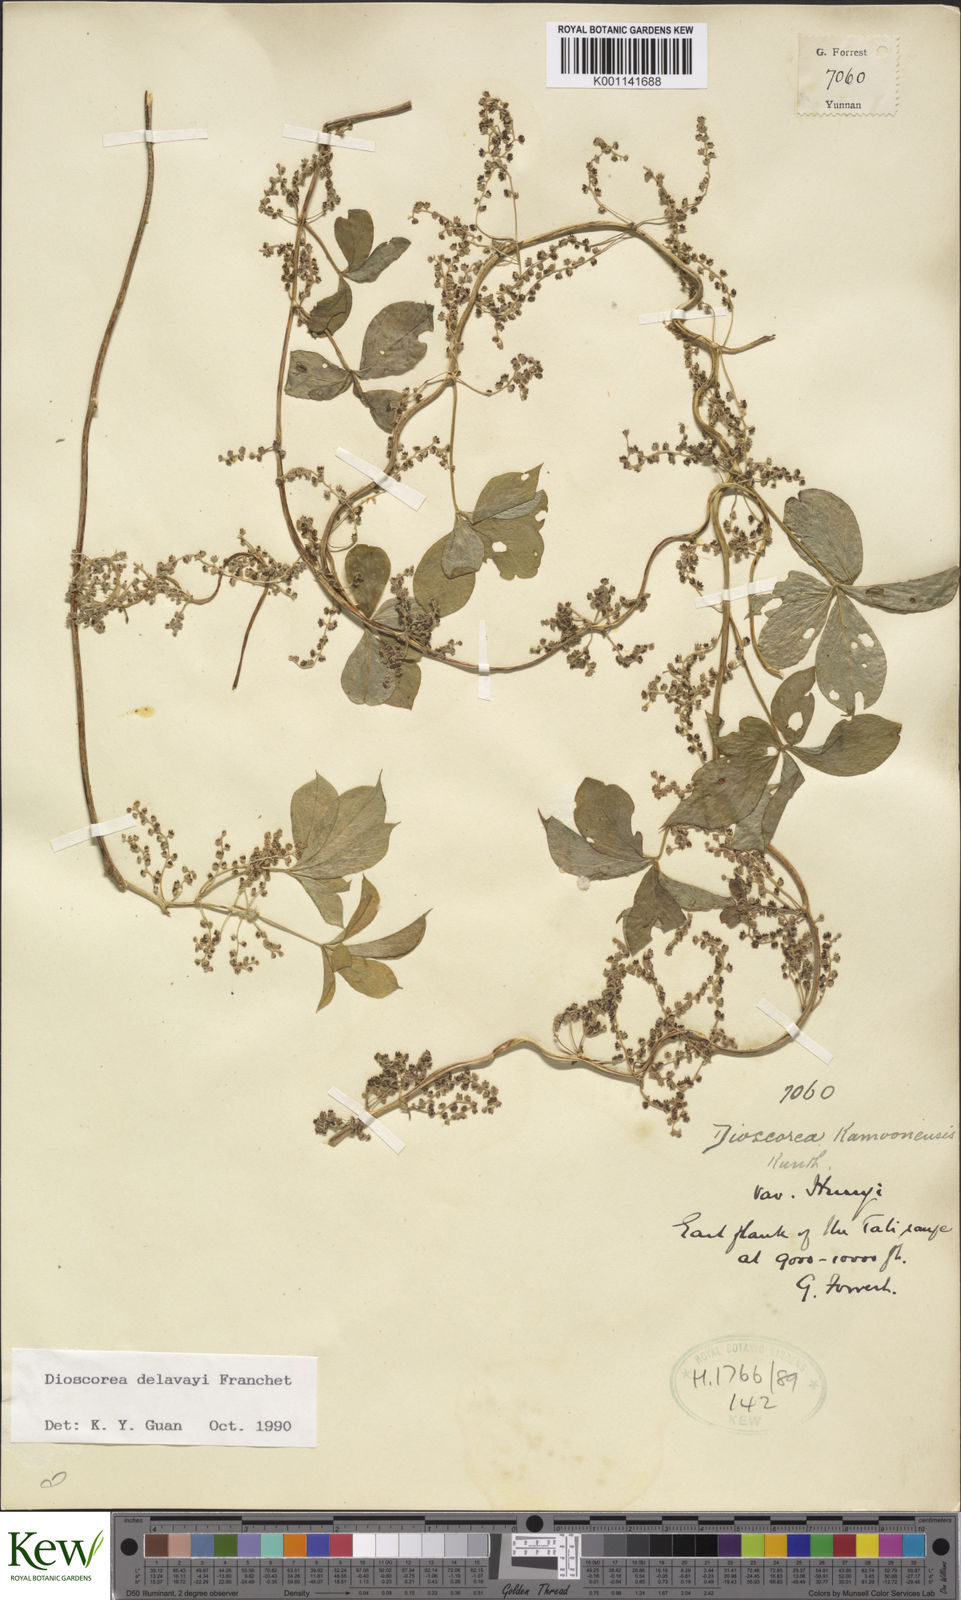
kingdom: Plantae
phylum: Tracheophyta
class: Liliopsida
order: Dioscoreales
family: Dioscoreaceae
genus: Dioscorea
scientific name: Dioscorea kamoonensis
